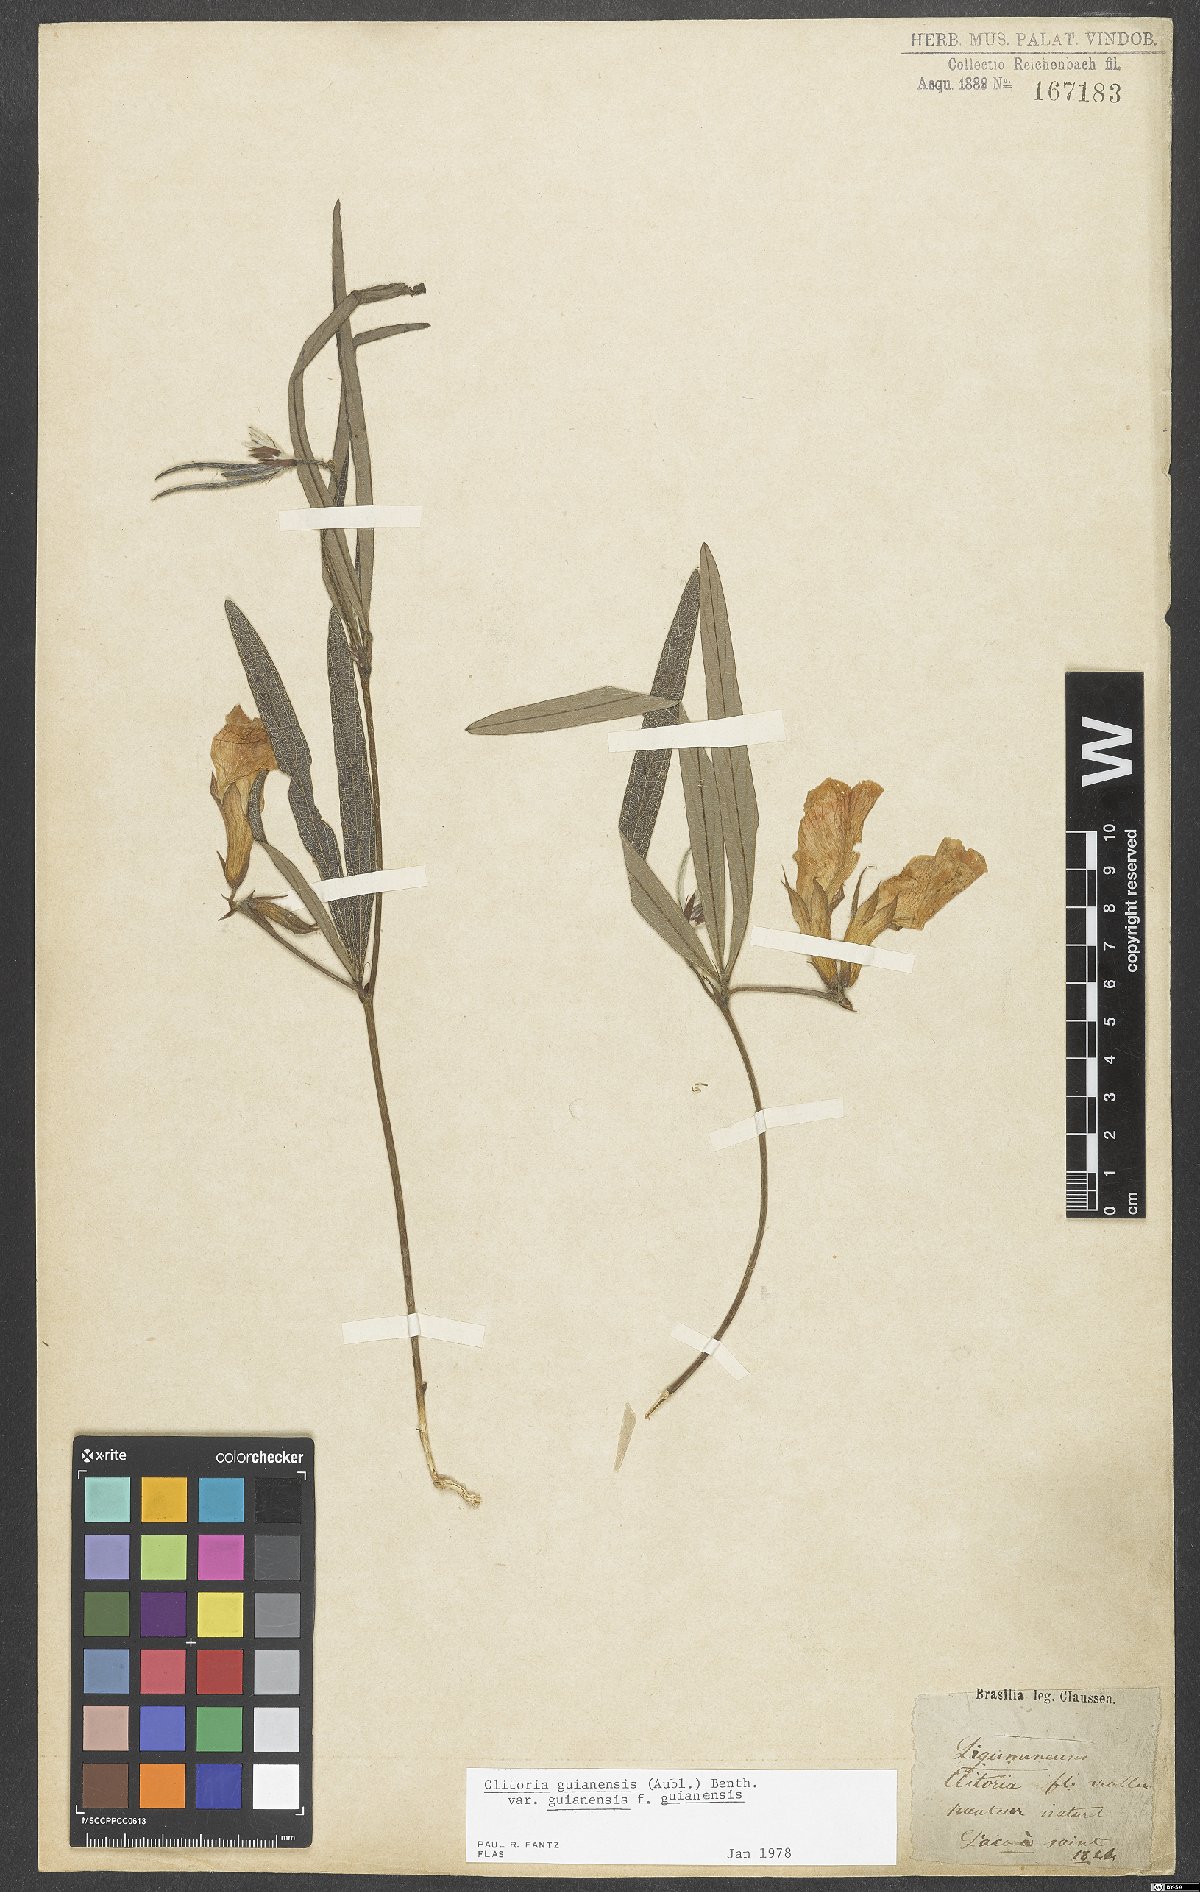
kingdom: Plantae
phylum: Tracheophyta
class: Magnoliopsida
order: Fabales
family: Fabaceae
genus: Clitoria
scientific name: Clitoria guianensis
